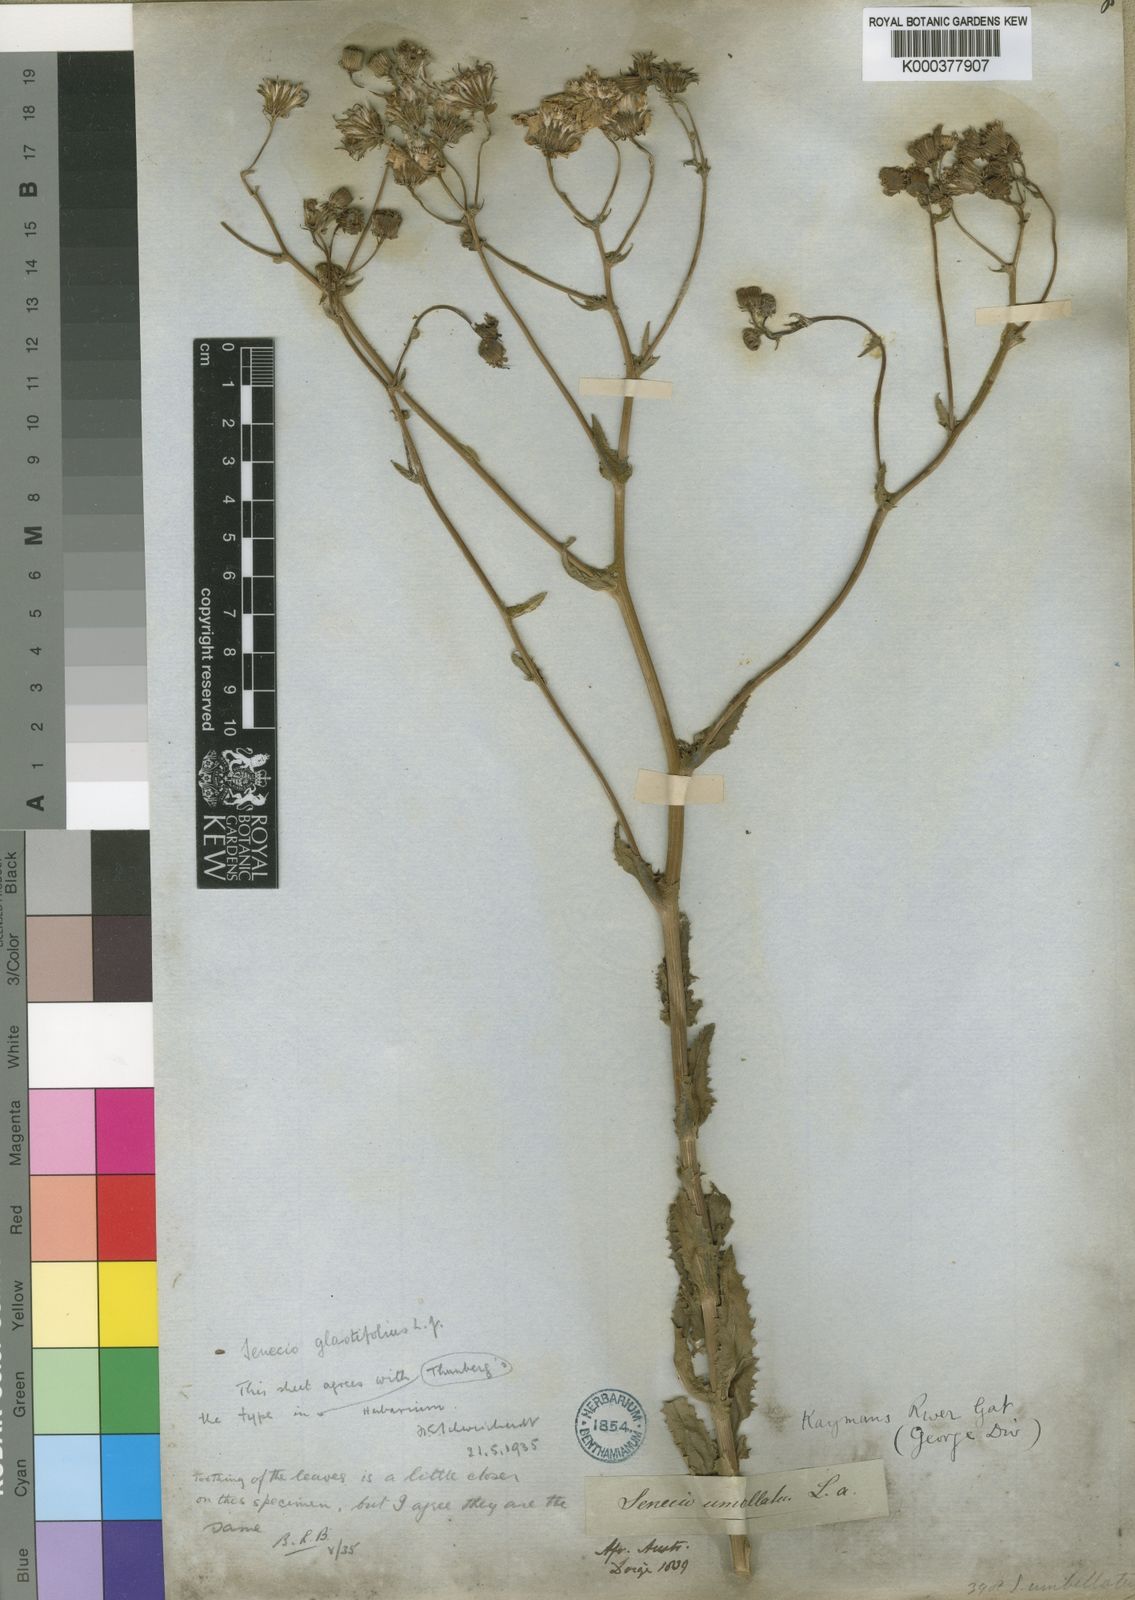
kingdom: Plantae
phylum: Tracheophyta
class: Magnoliopsida
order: Asterales
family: Asteraceae
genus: Senecio
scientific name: Senecio glastifolius
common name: Woad-leaved ragwort
